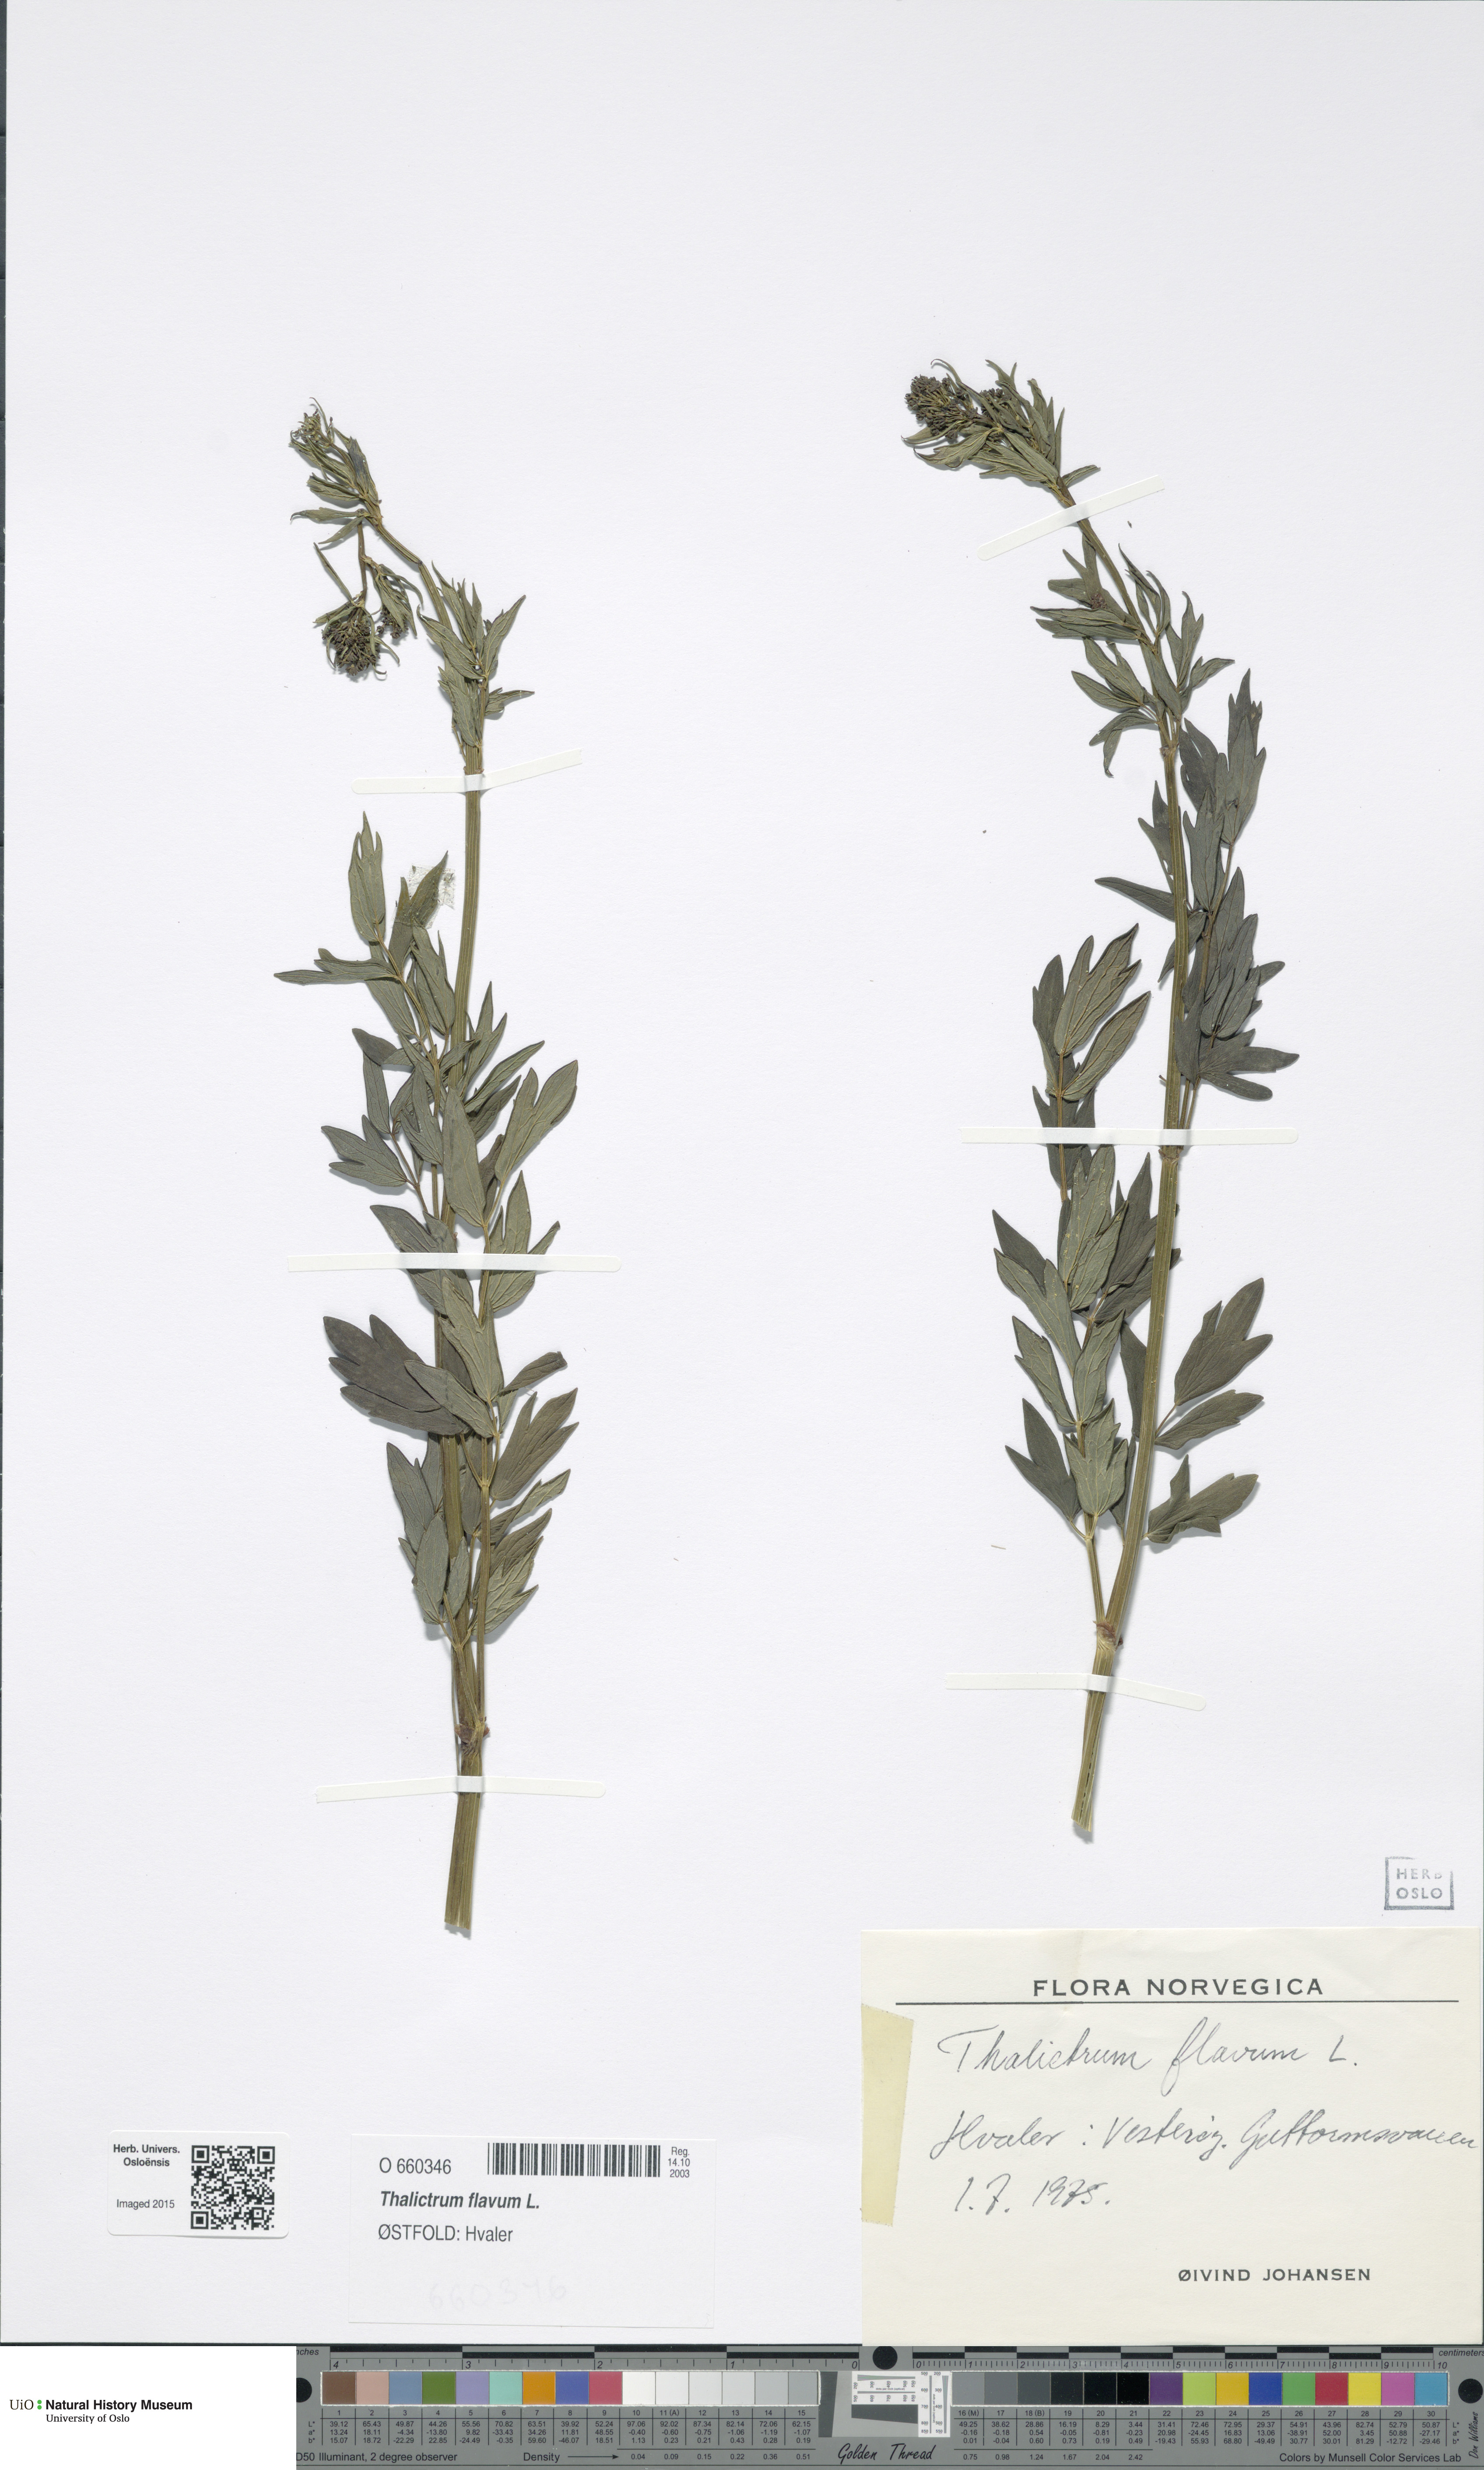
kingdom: Plantae
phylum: Tracheophyta
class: Magnoliopsida
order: Ranunculales
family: Ranunculaceae
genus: Thalictrum
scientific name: Thalictrum flavum
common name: Common meadow-rue
